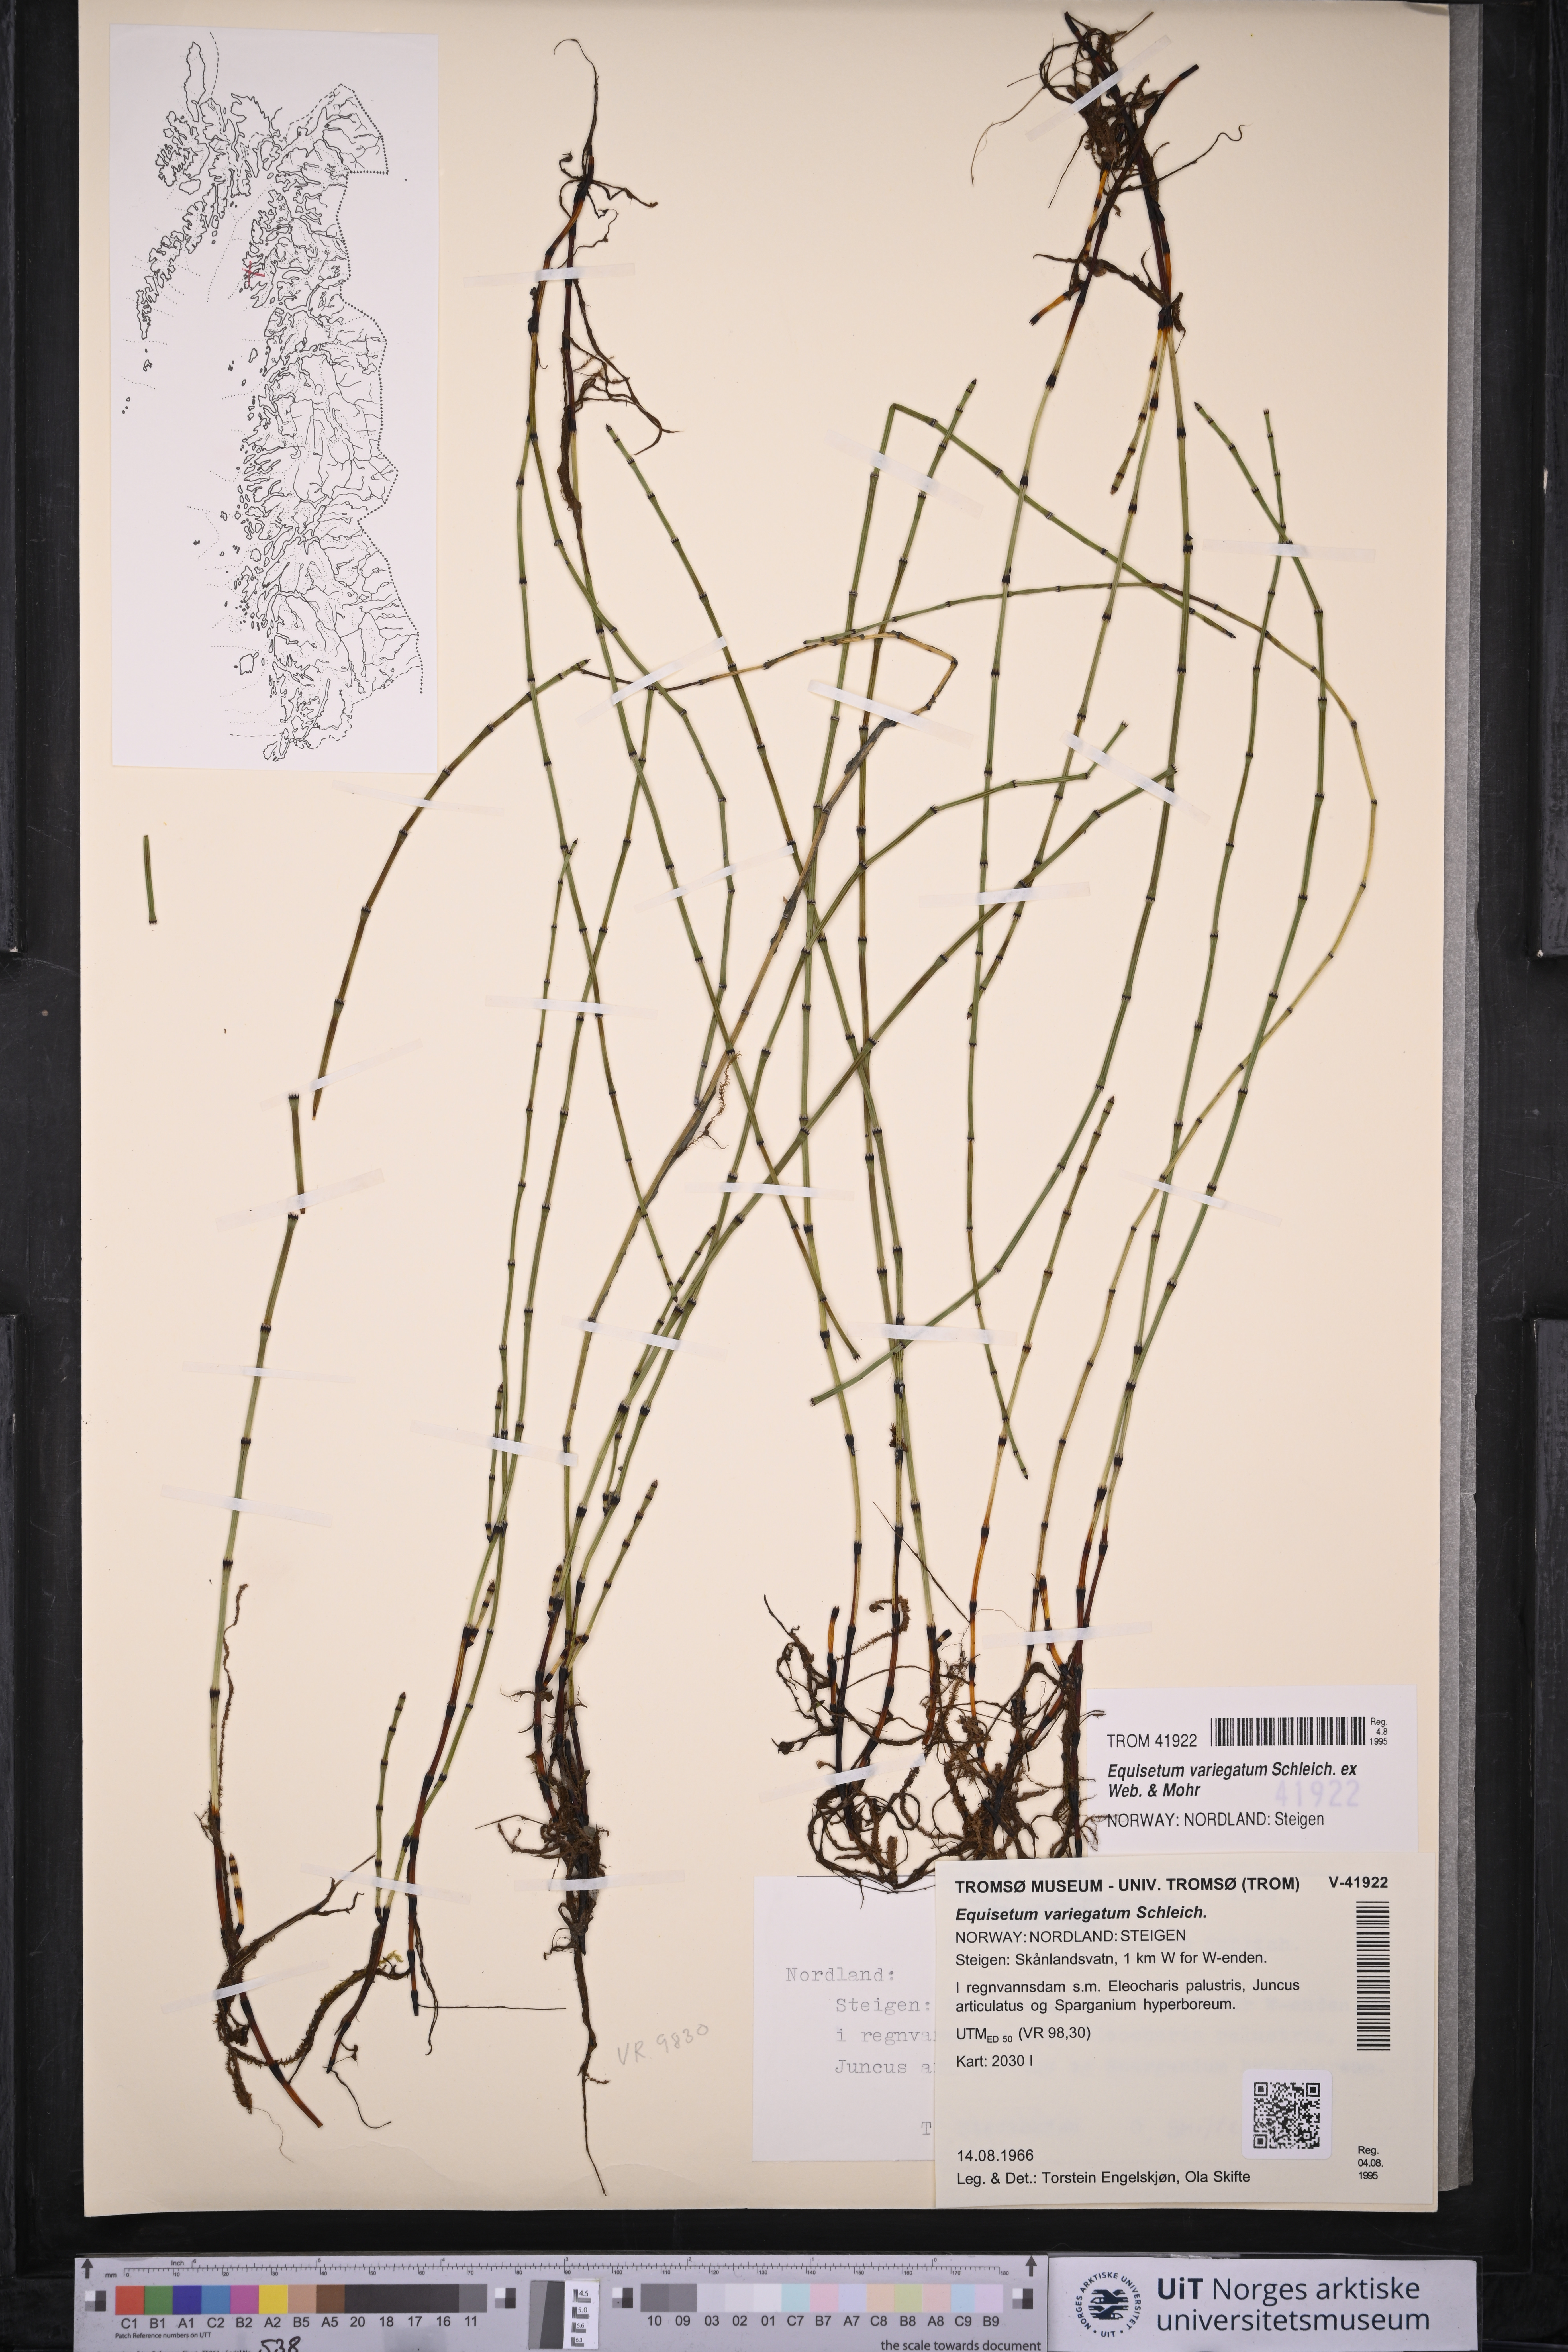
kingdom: Plantae
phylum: Tracheophyta
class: Polypodiopsida
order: Equisetales
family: Equisetaceae
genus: Equisetum
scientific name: Equisetum variegatum
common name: Variegated horsetail
